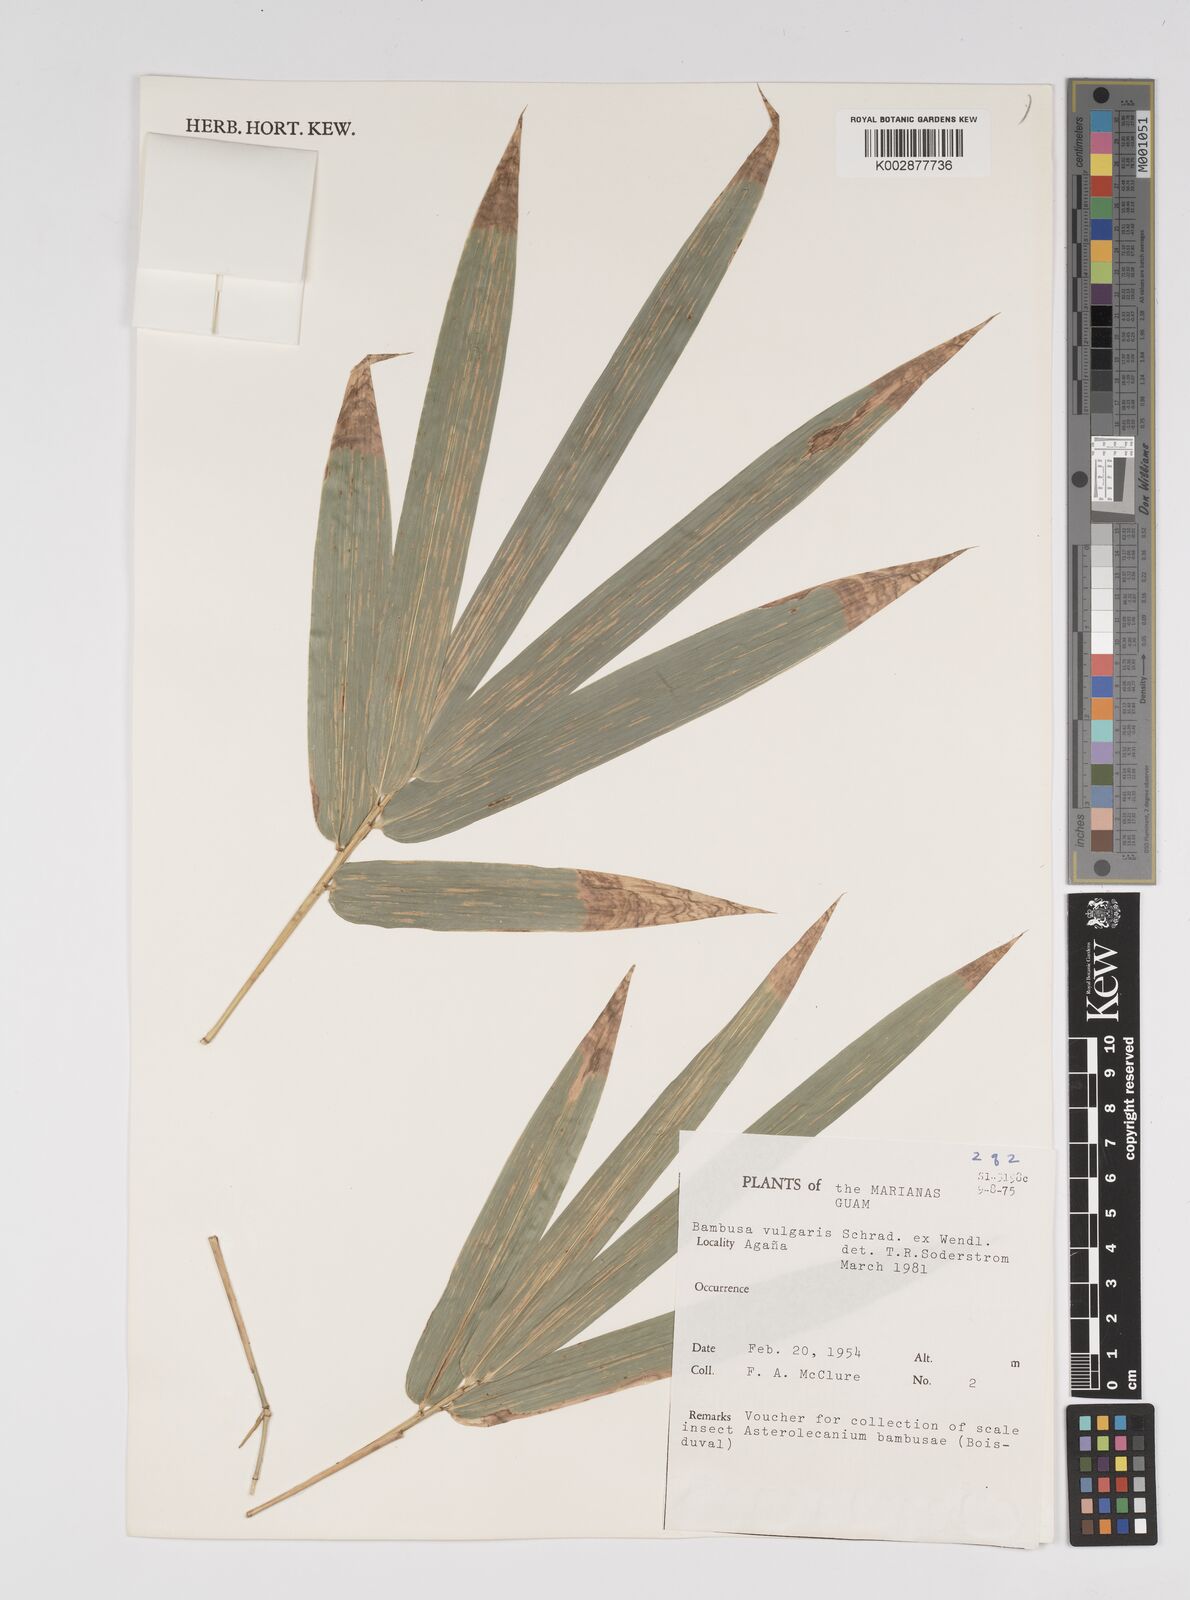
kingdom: Plantae
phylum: Tracheophyta
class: Liliopsida
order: Poales
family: Poaceae
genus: Bambusa
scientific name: Bambusa vulgaris
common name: Common bamboo
